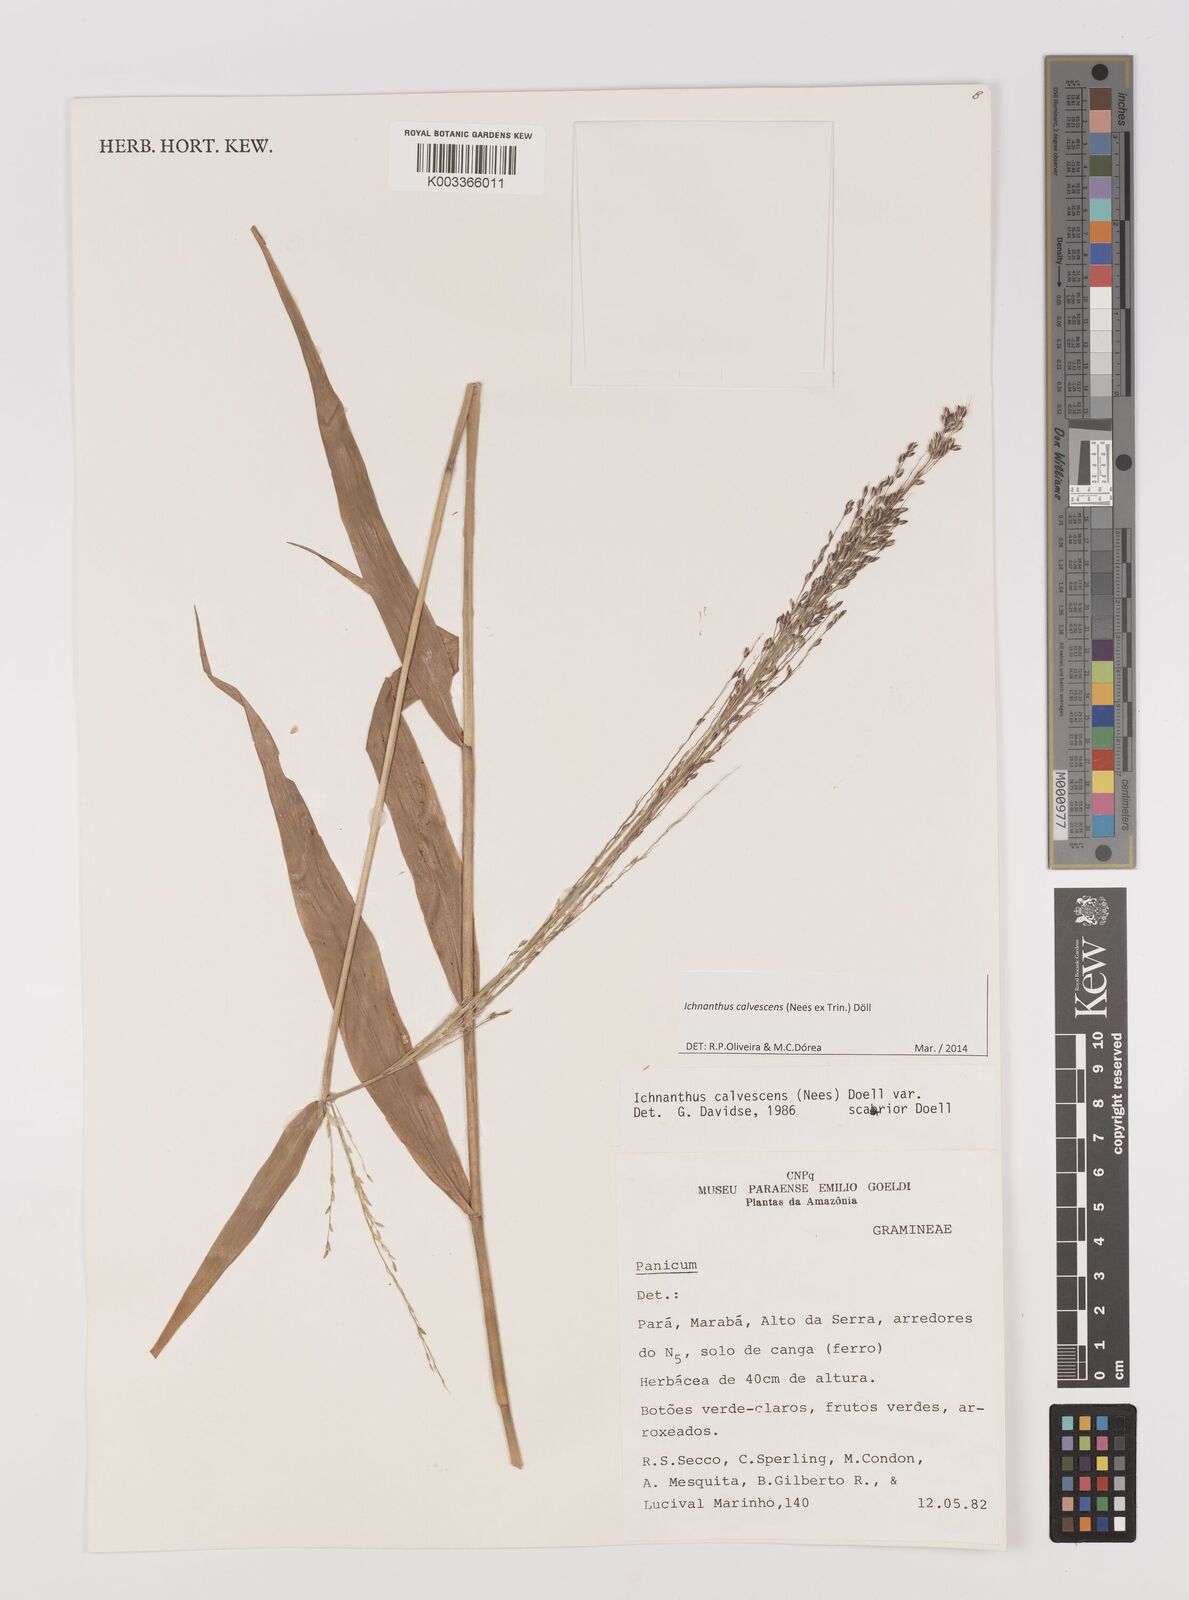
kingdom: Plantae
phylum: Tracheophyta
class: Liliopsida
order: Poales
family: Poaceae
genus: Ichnanthus
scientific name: Ichnanthus calvescens
